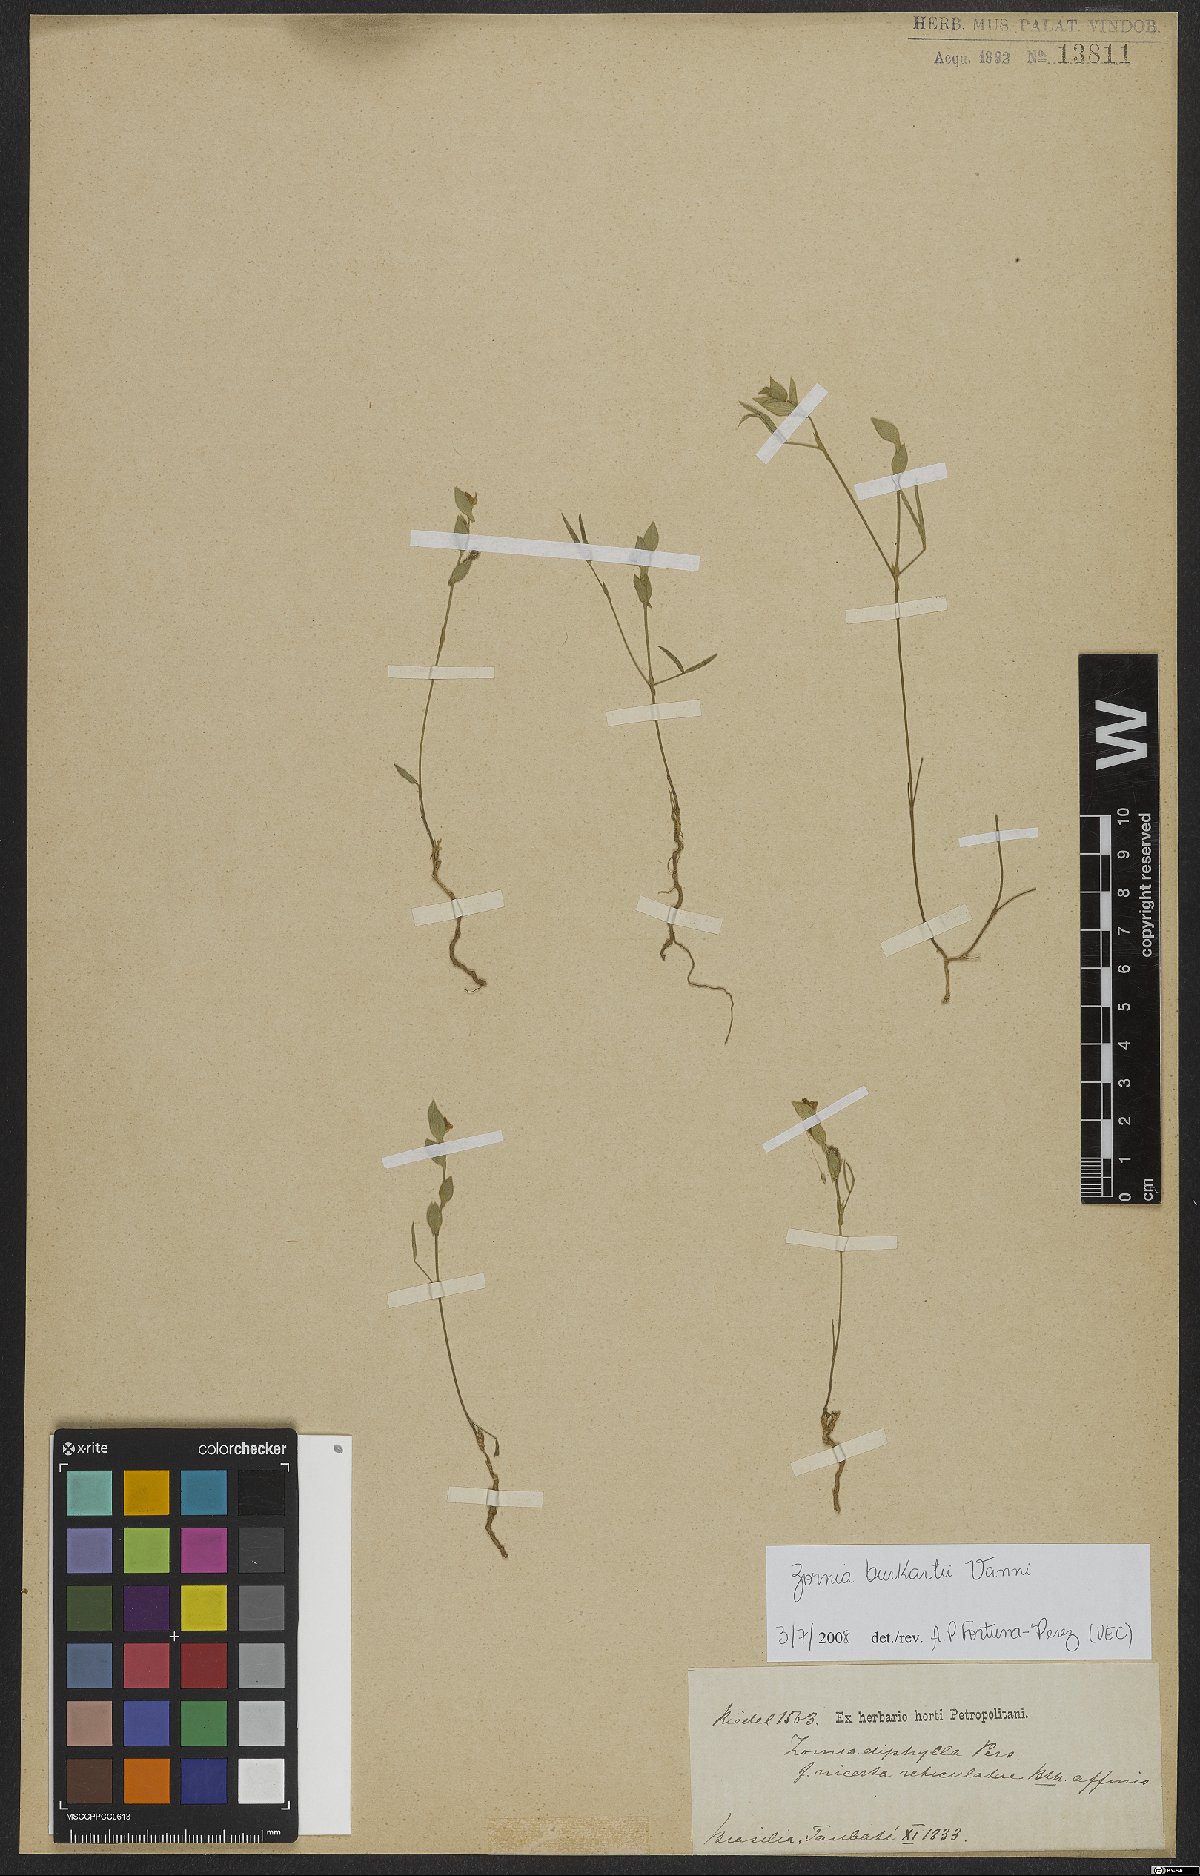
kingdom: Plantae
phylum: Tracheophyta
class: Magnoliopsida
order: Fabales
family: Fabaceae
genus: Zornia
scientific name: Zornia burkartii
